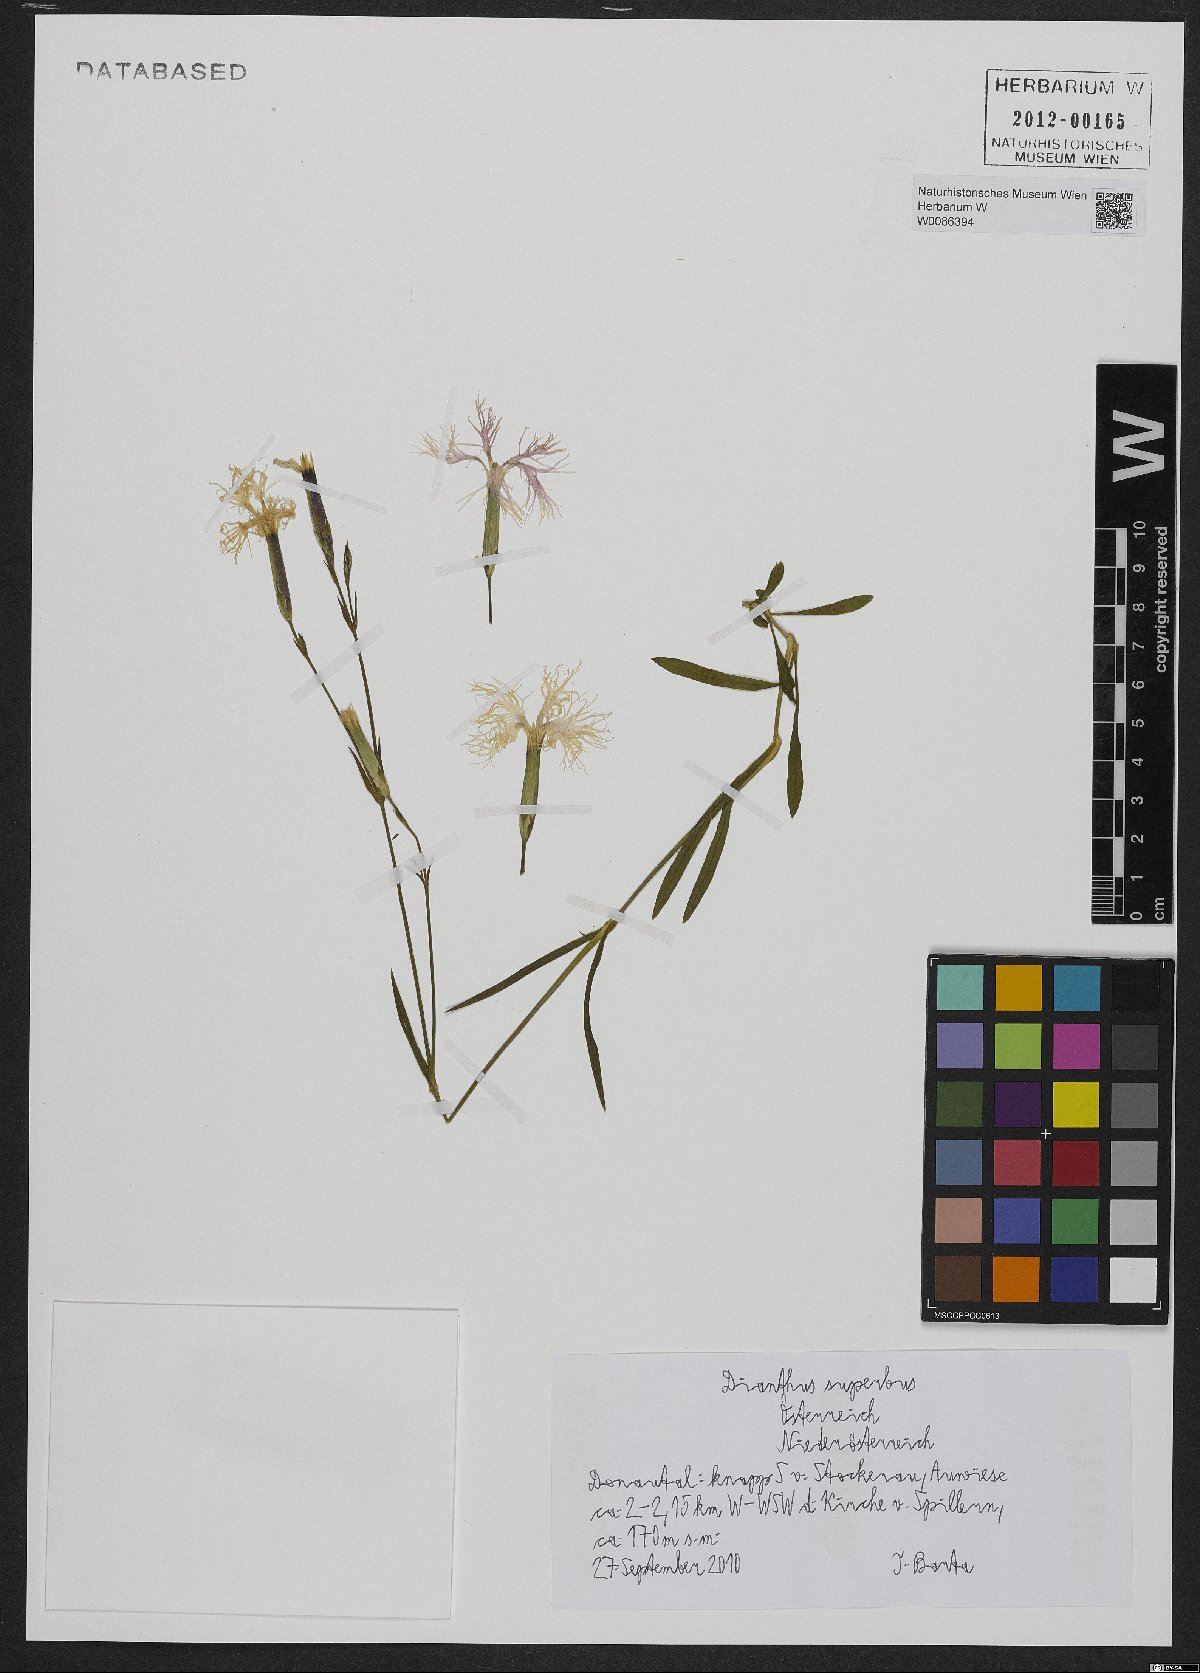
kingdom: Plantae
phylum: Tracheophyta
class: Magnoliopsida
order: Caryophyllales
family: Caryophyllaceae
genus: Dianthus
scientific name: Dianthus superbus
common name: Fringed pink
